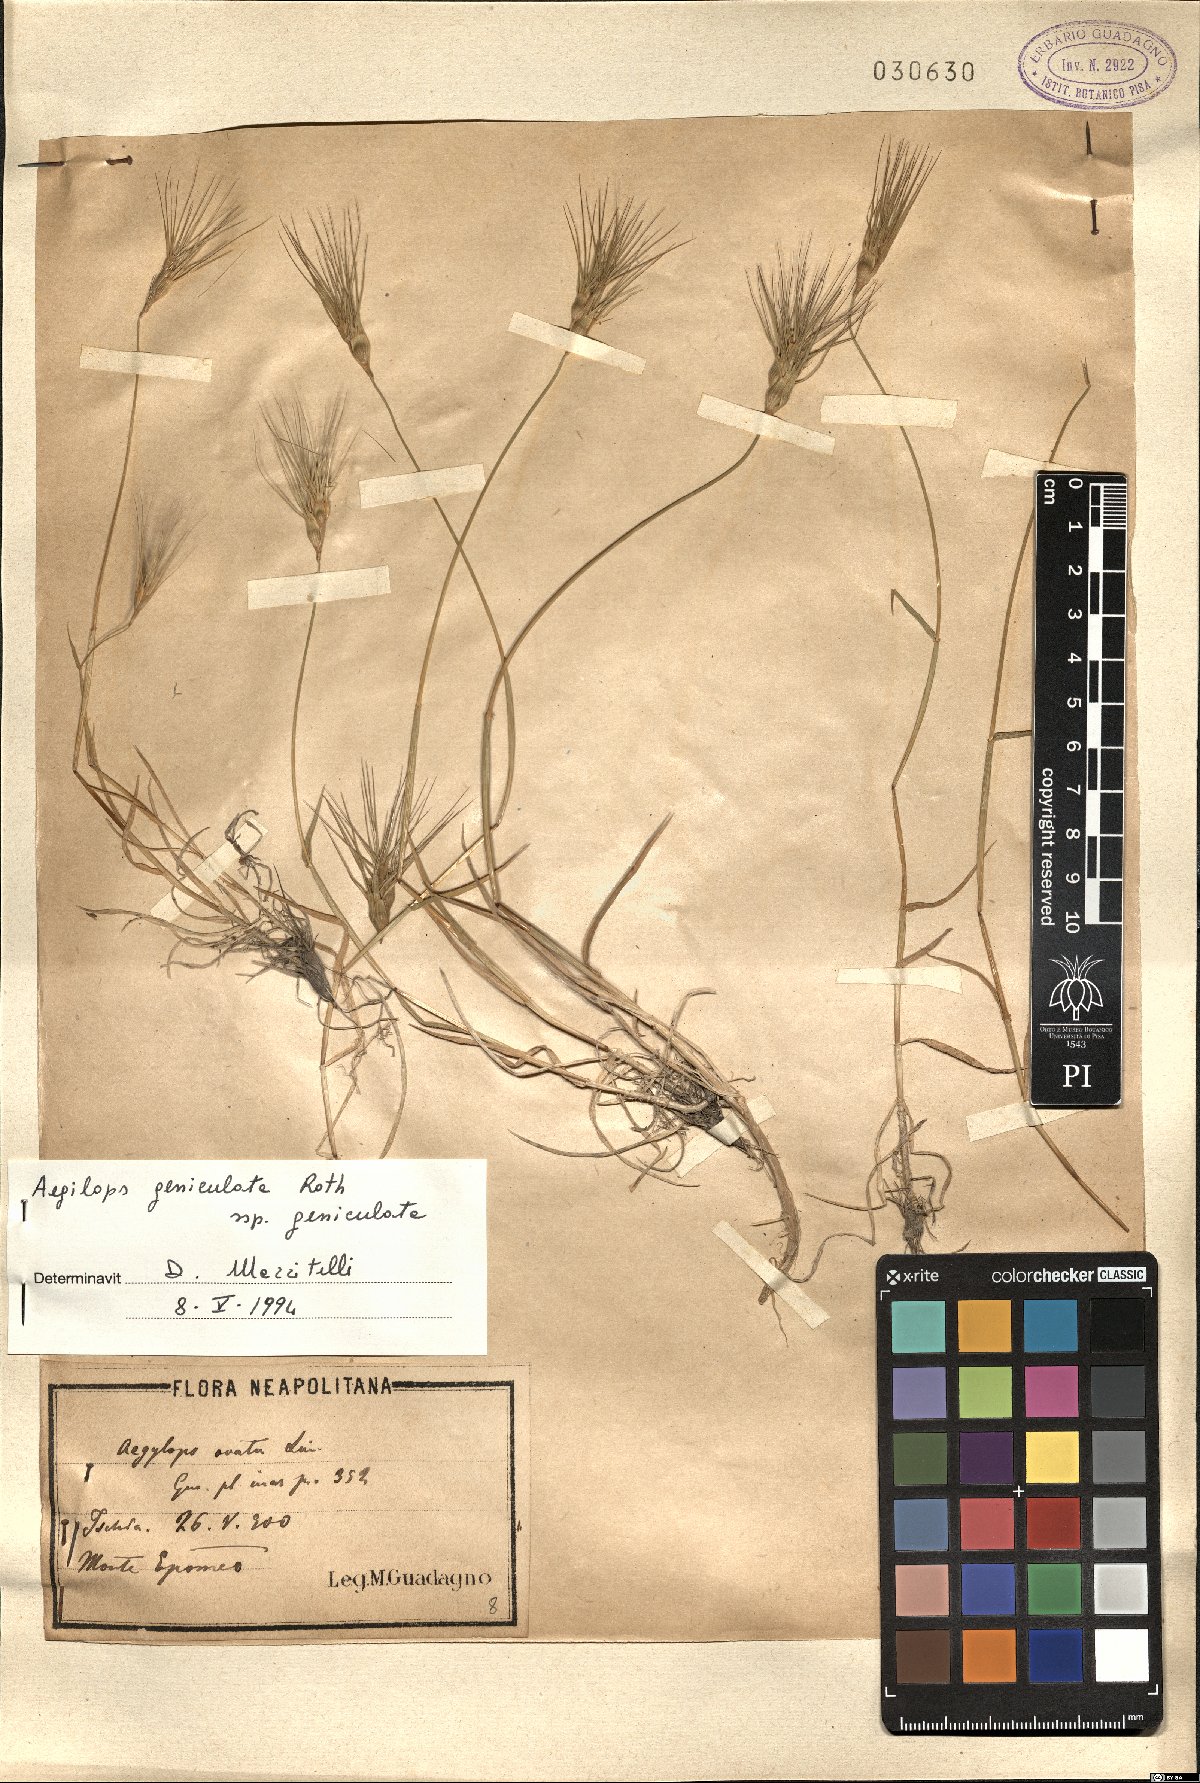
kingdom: Plantae
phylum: Tracheophyta
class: Liliopsida
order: Poales
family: Poaceae
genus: Aegilops
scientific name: Aegilops geniculata
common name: Ovate goat grass
